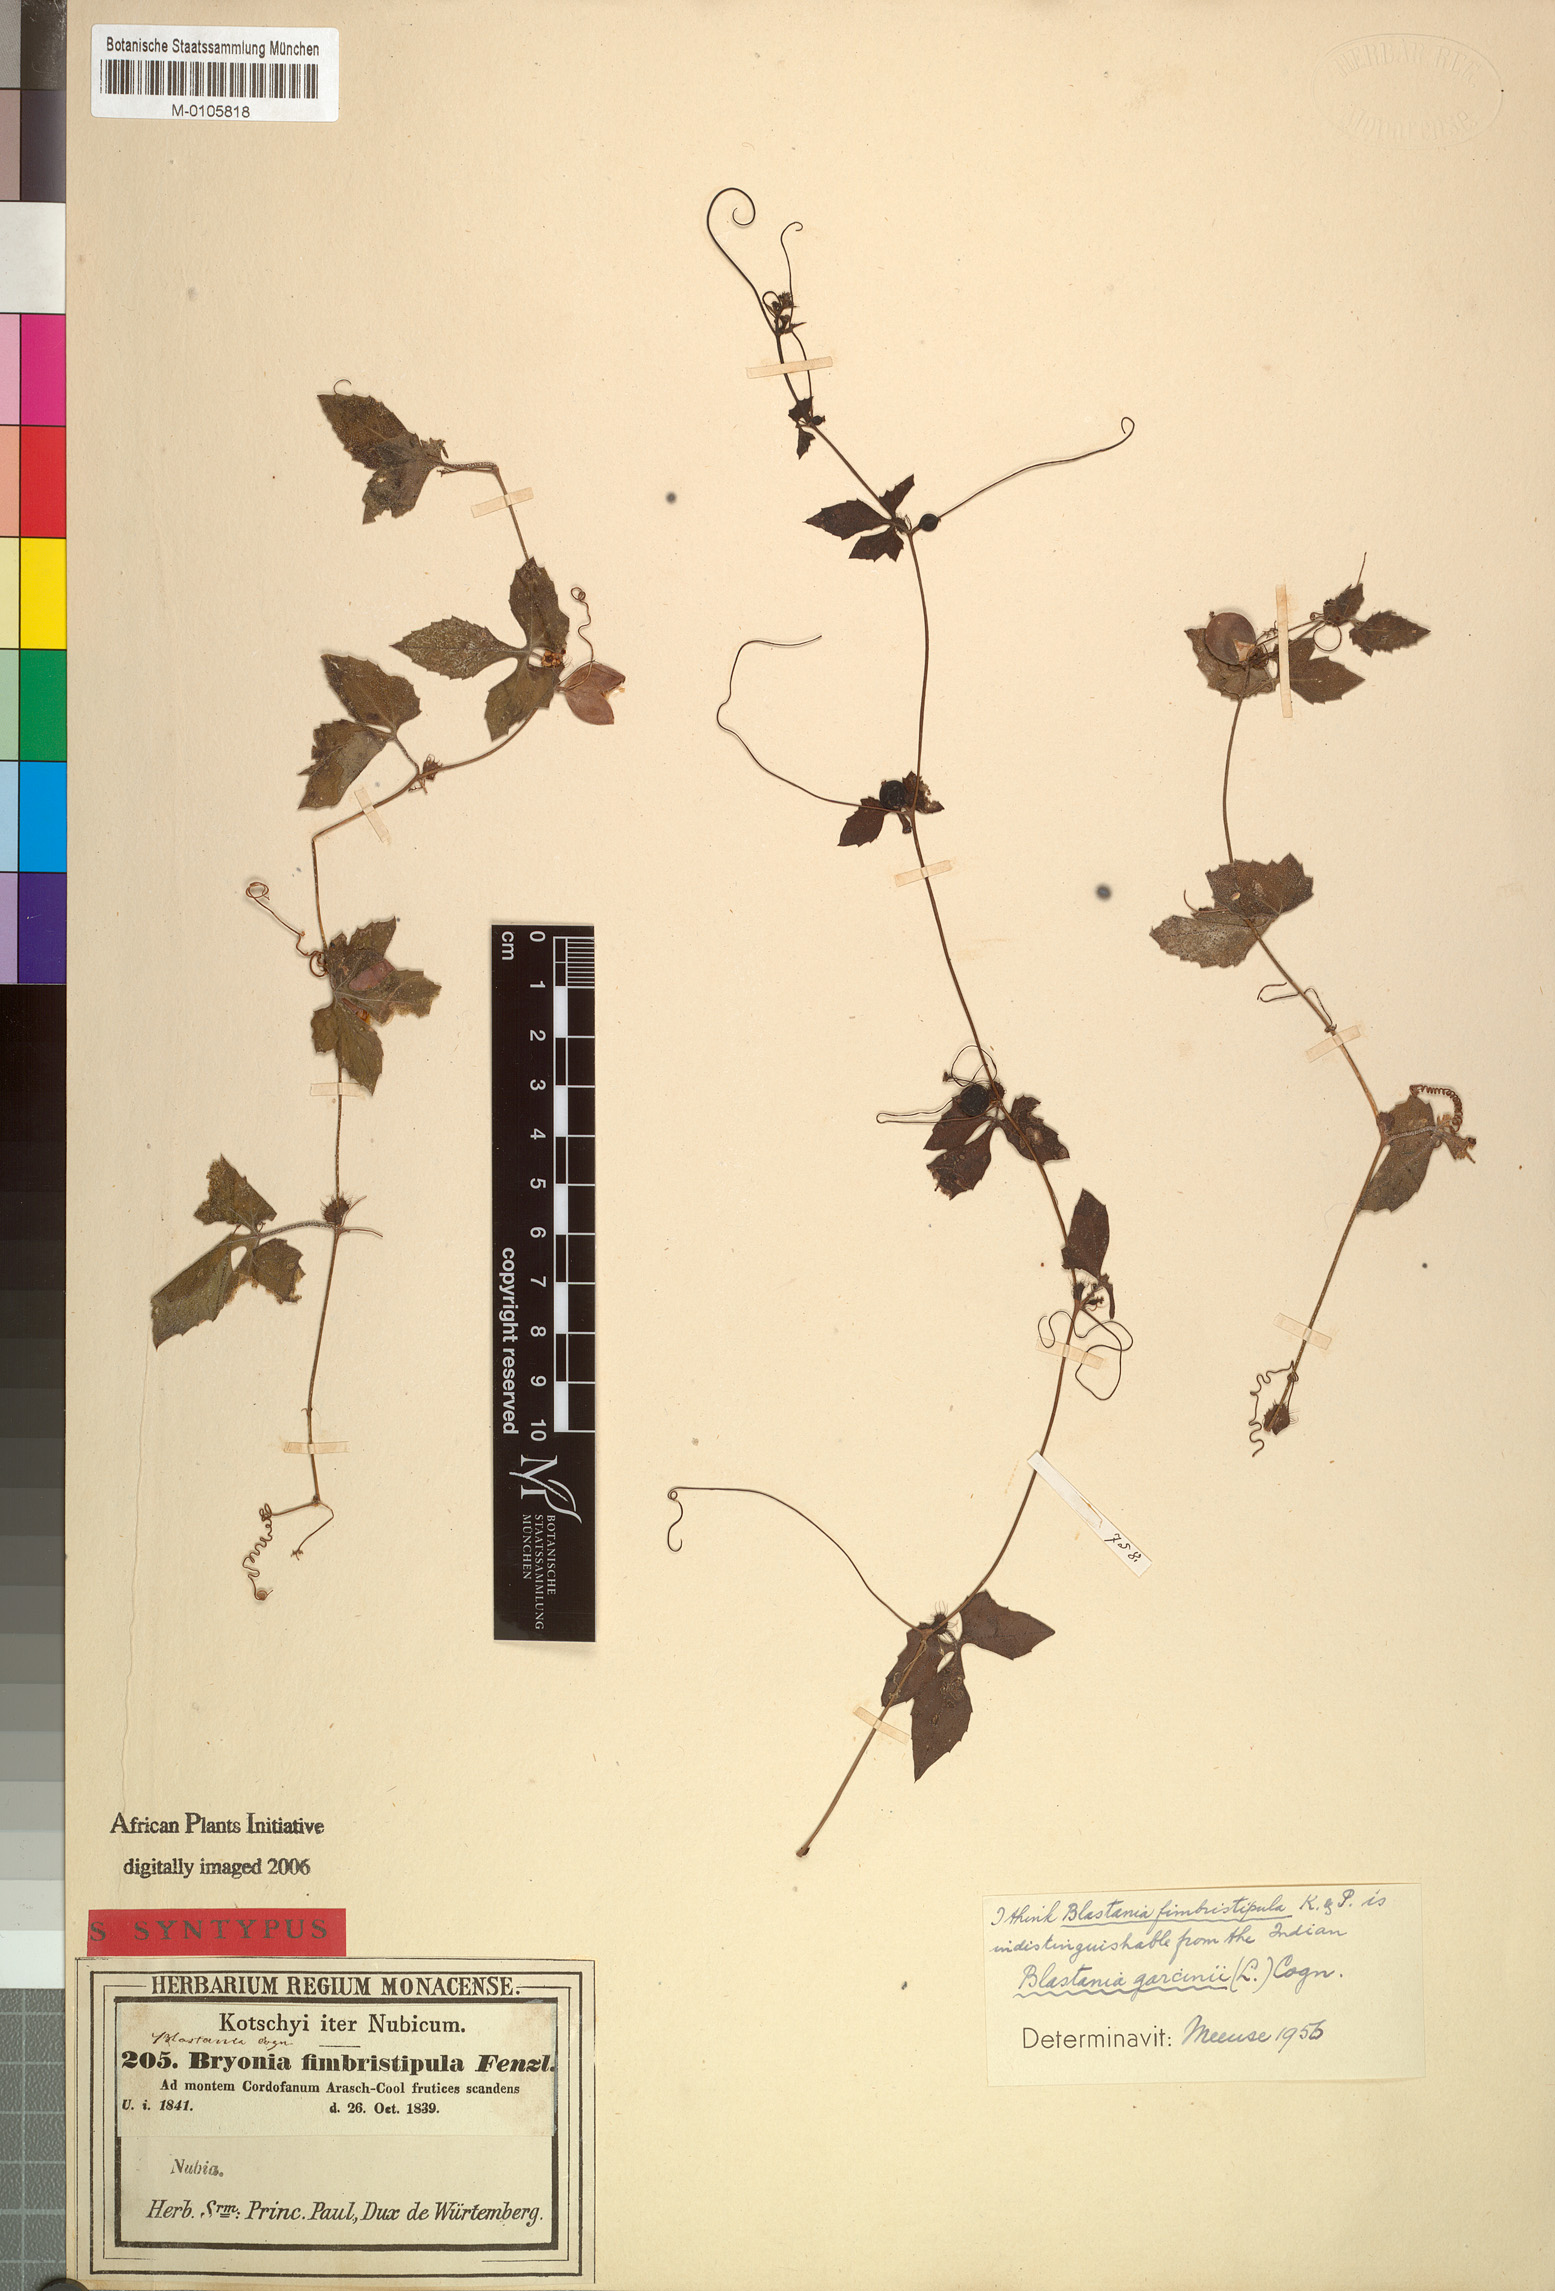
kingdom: Plantae
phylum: Tracheophyta
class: Magnoliopsida
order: Cucurbitales
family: Cucurbitaceae
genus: Blastania
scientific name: Blastania cerasiformis
